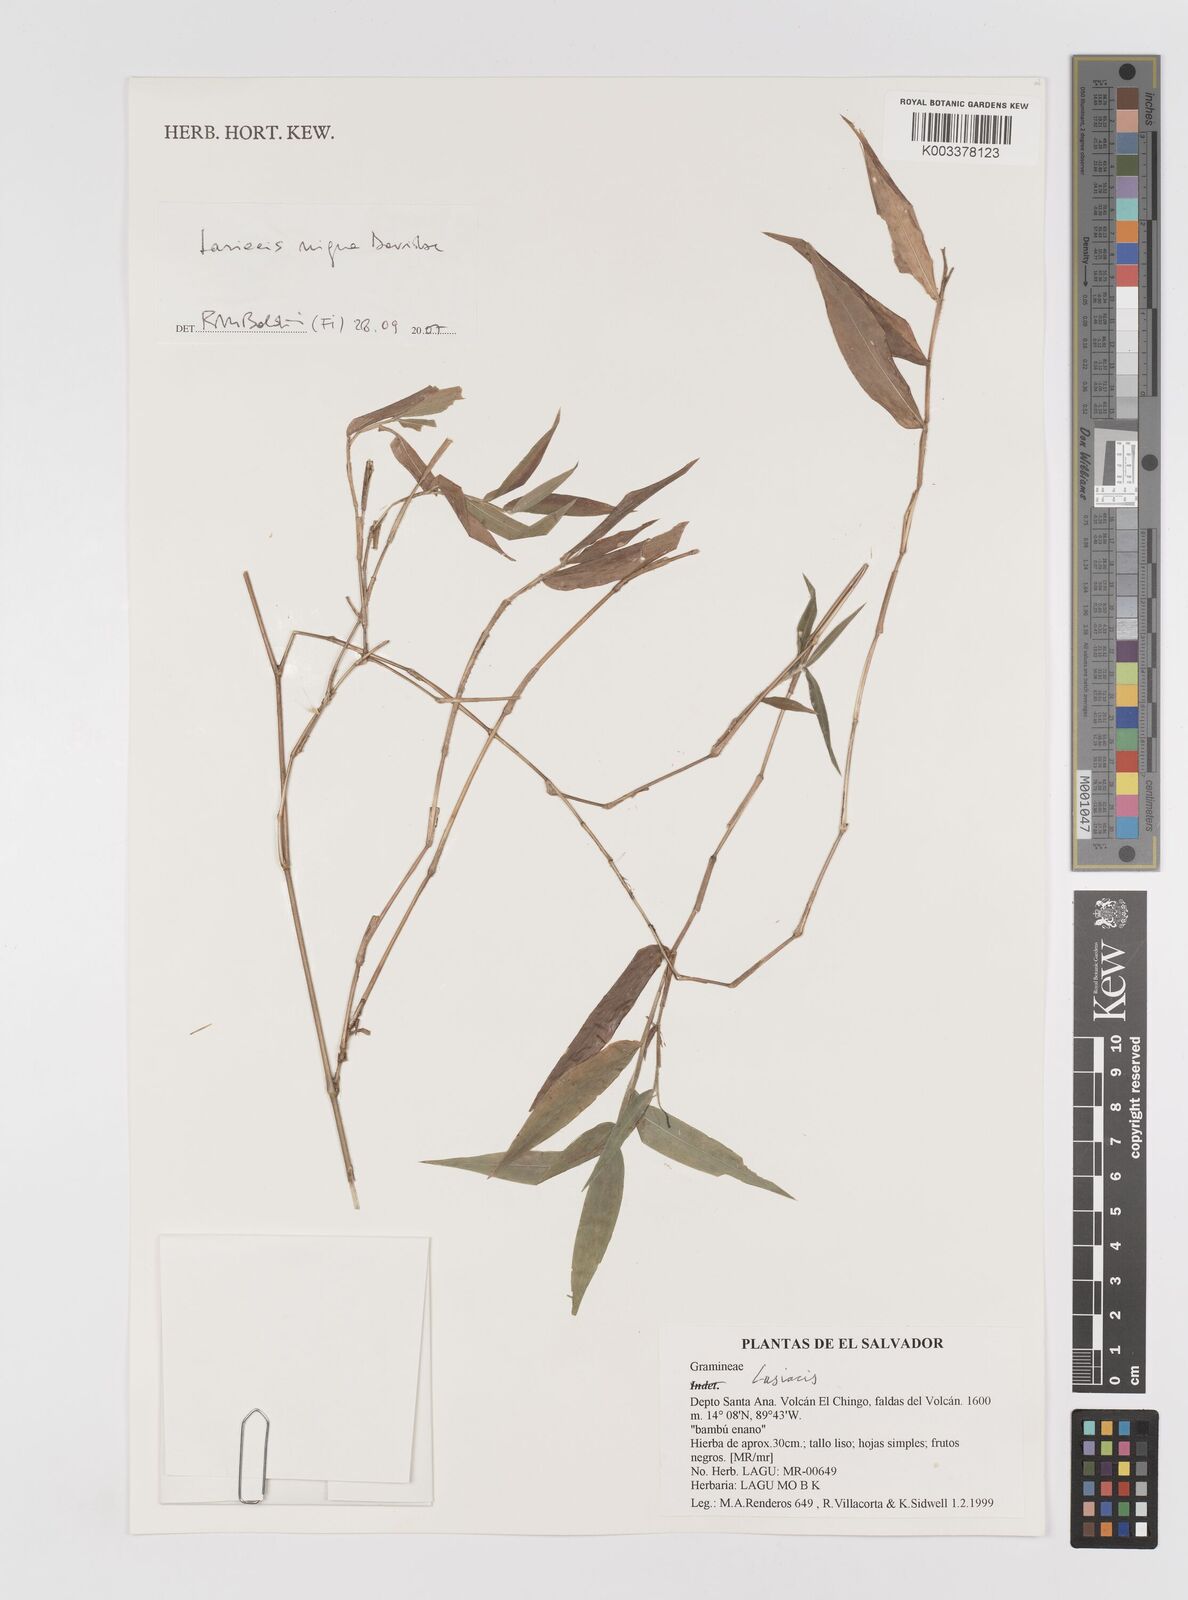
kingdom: Plantae
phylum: Tracheophyta
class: Liliopsida
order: Poales
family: Poaceae
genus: Lasiacis
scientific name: Lasiacis nigra
